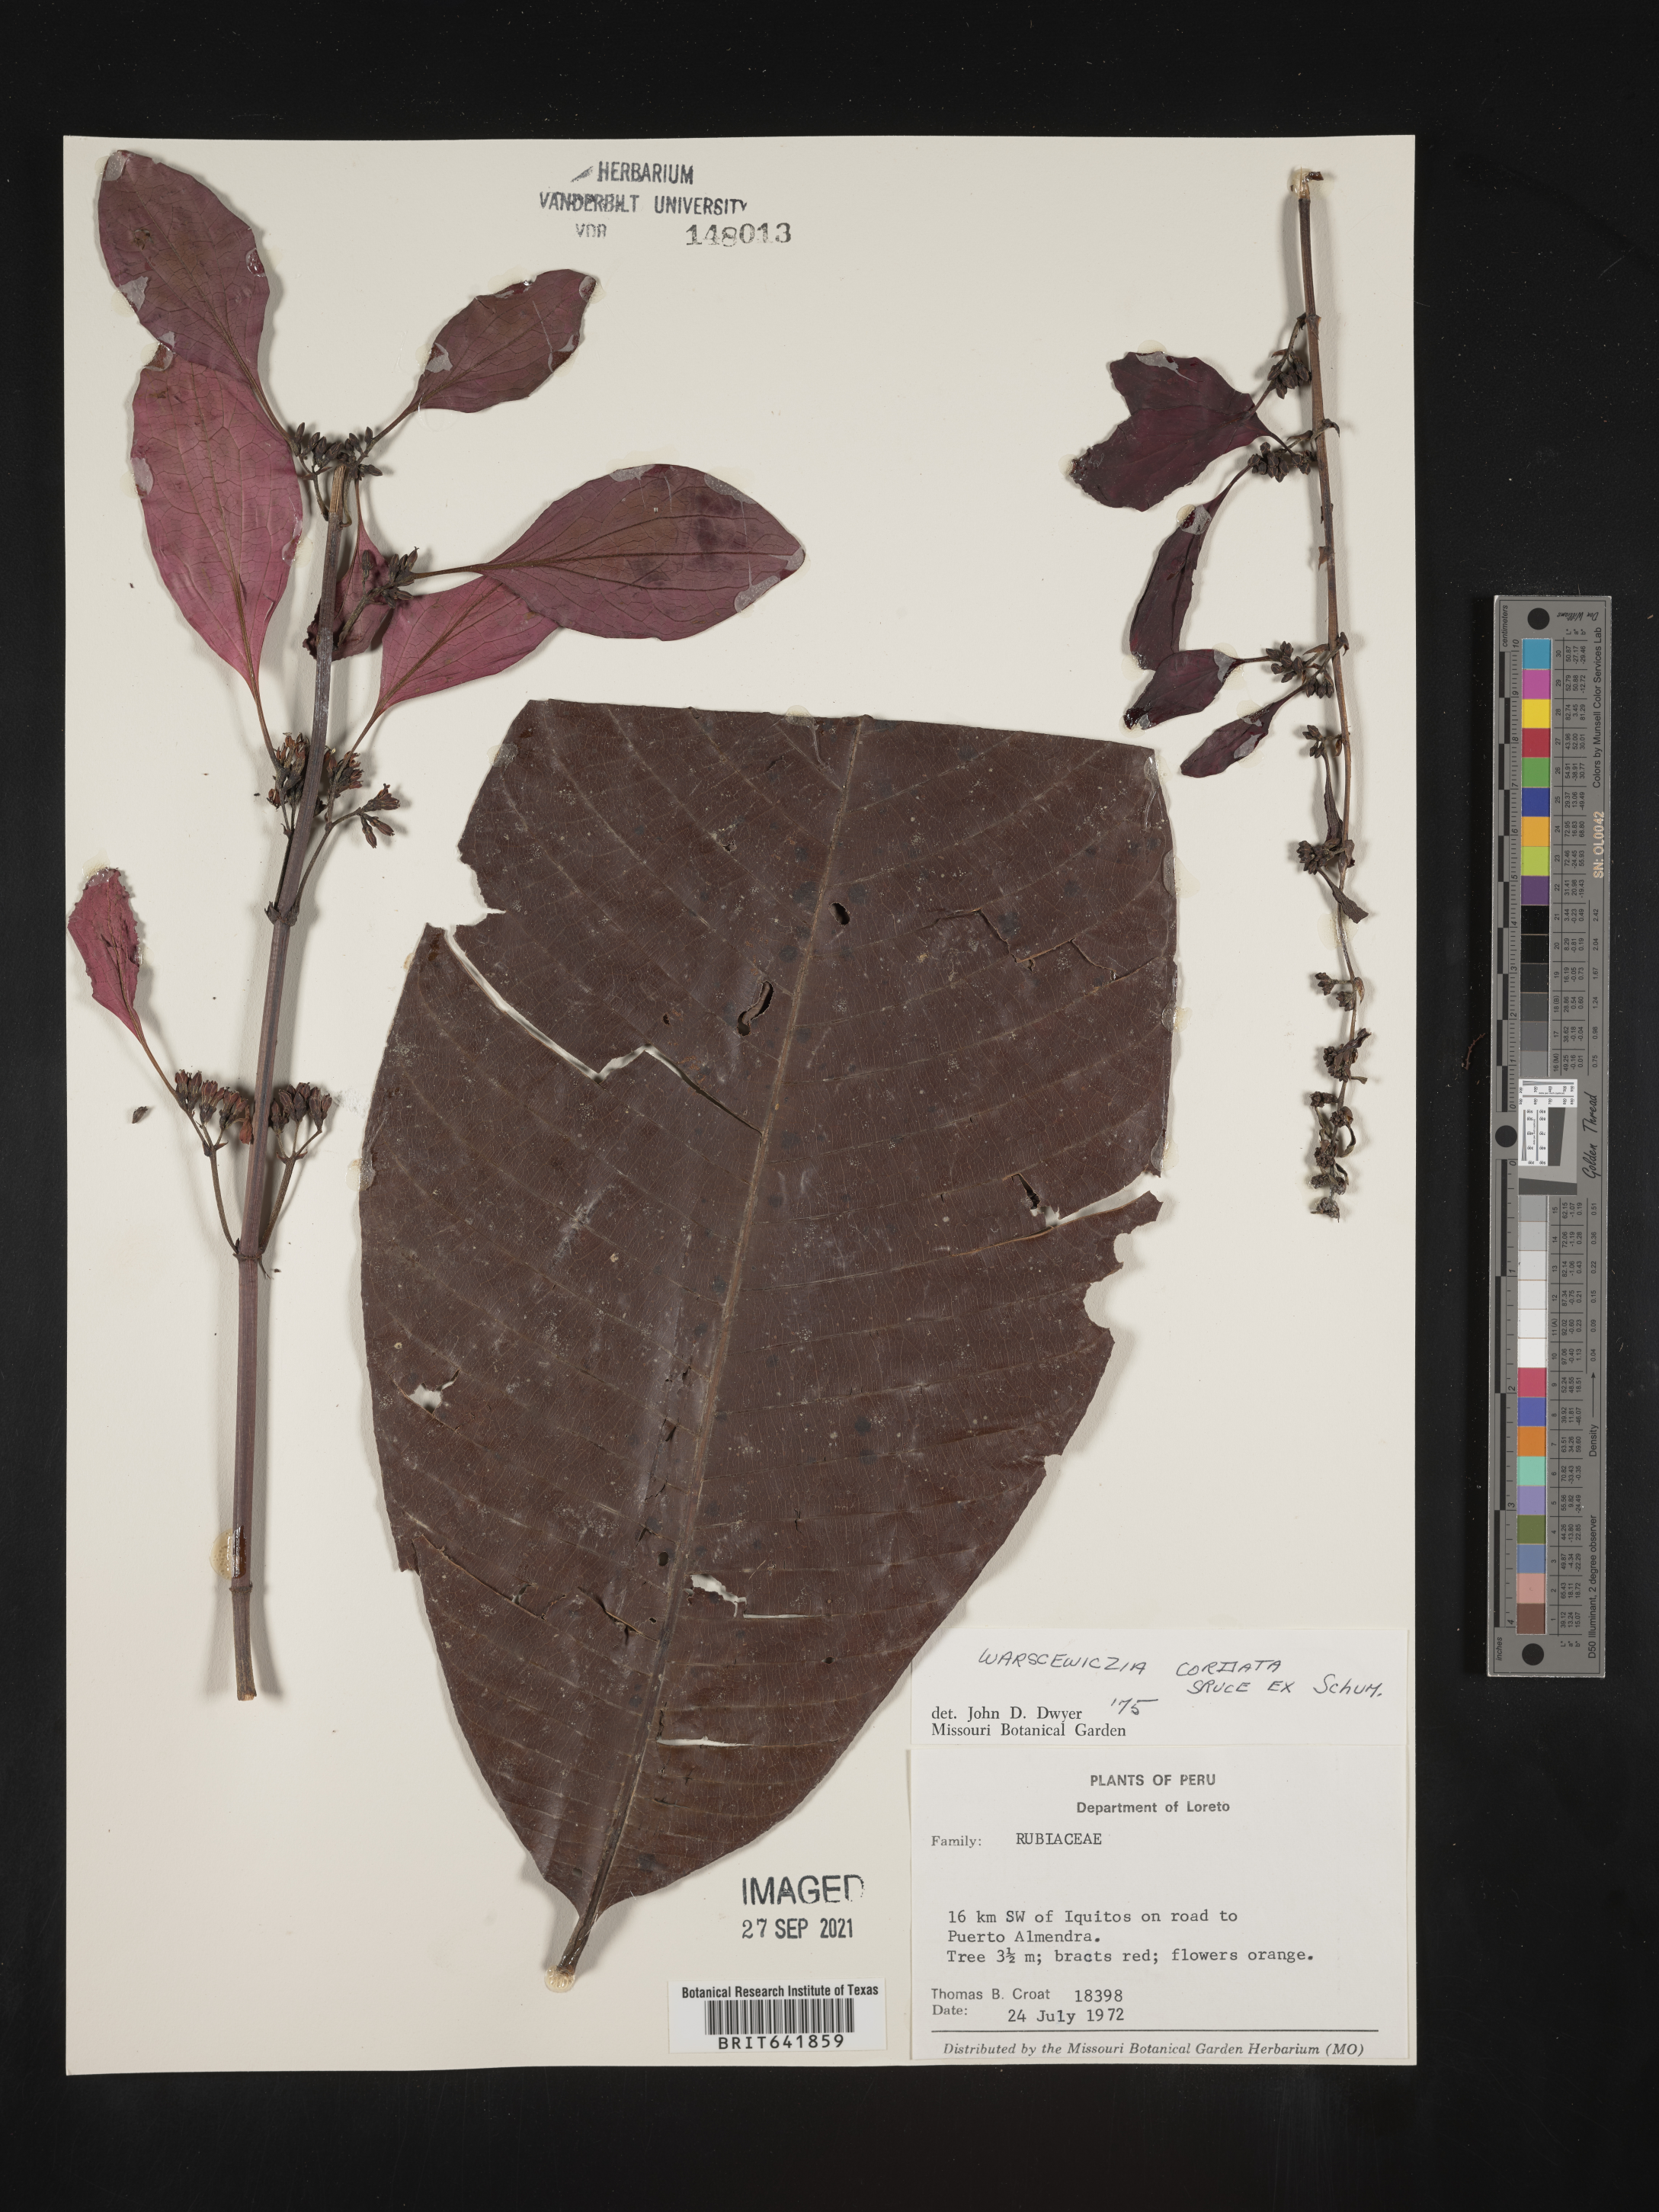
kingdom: Plantae
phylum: Tracheophyta
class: Magnoliopsida
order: Gentianales
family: Rubiaceae
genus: Warszewiczia
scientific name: Warszewiczia
